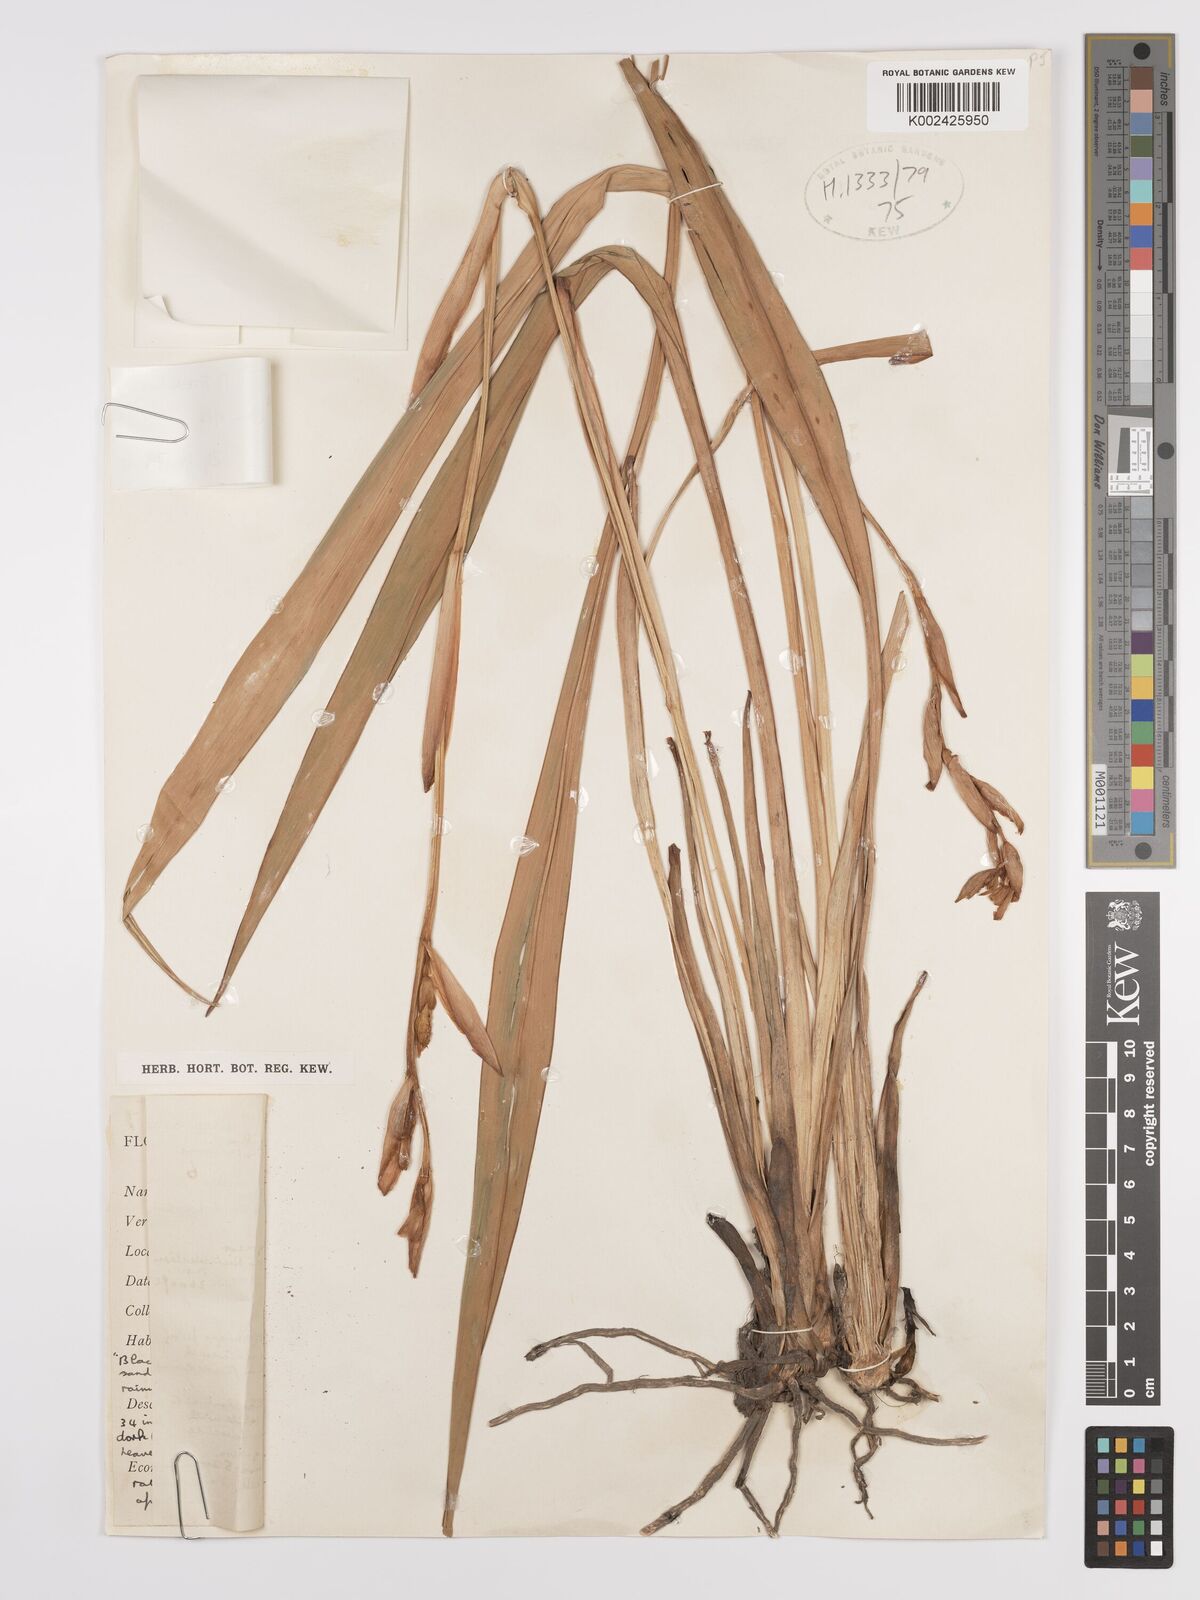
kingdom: Plantae
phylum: Tracheophyta
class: Liliopsida
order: Zingiberales
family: Zingiberaceae
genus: Siphonochilus
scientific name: Siphonochilus
